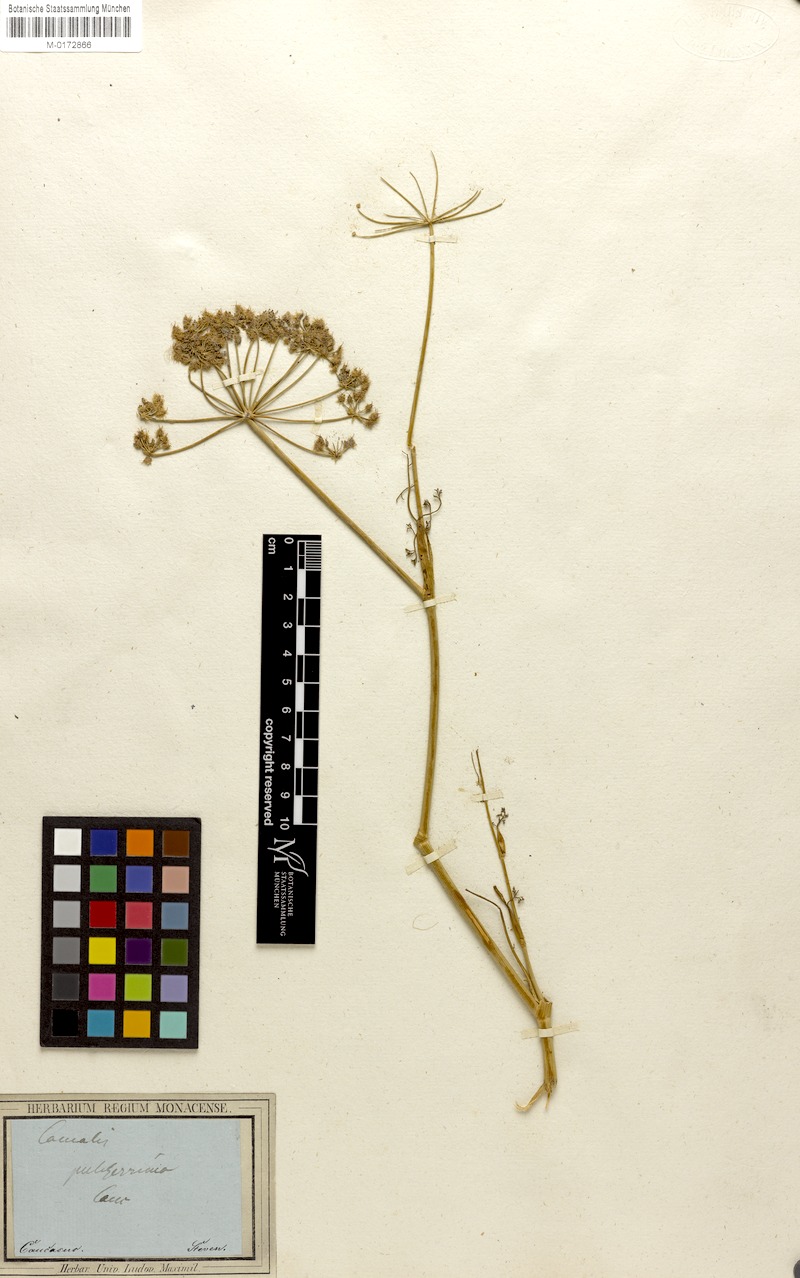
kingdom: Plantae
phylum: Tracheophyta
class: Magnoliopsida
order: Apiales
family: Apiaceae
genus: Astrodaucus
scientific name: Astrodaucus orientalis
